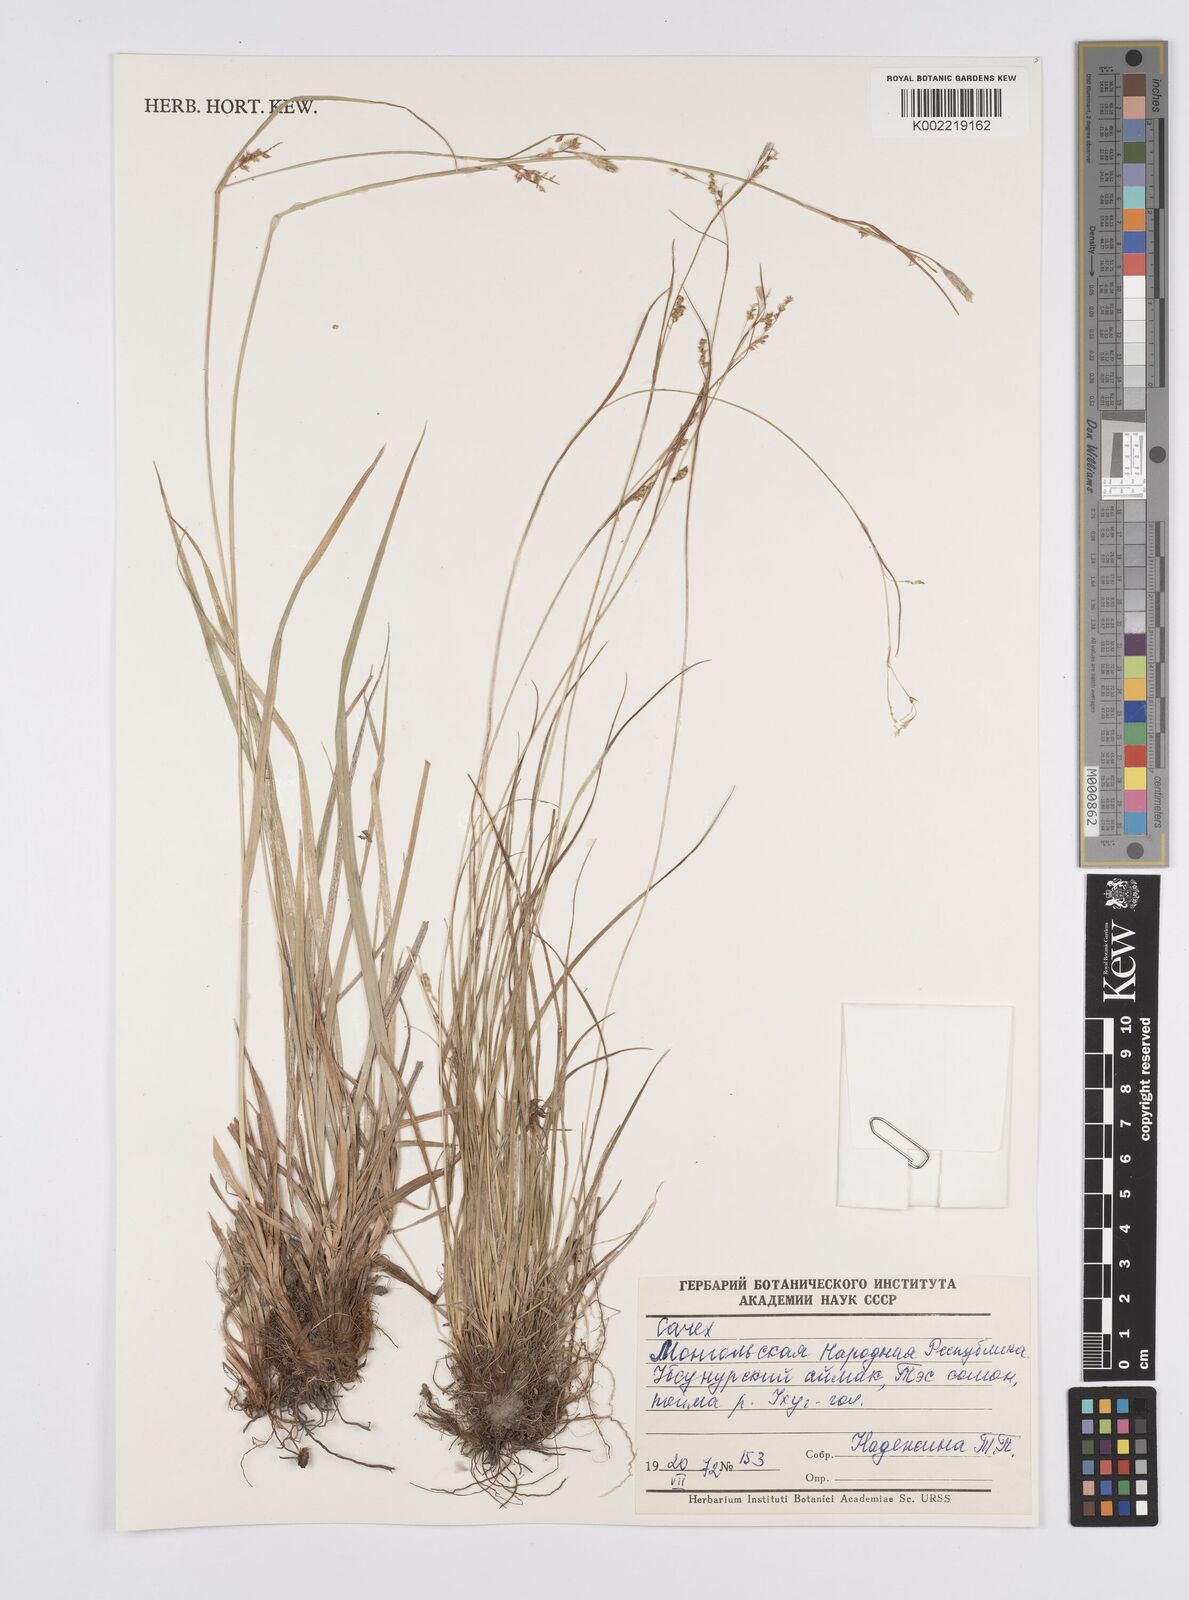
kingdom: Plantae
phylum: Tracheophyta
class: Liliopsida
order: Poales
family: Cyperaceae
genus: Carex
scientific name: Carex
